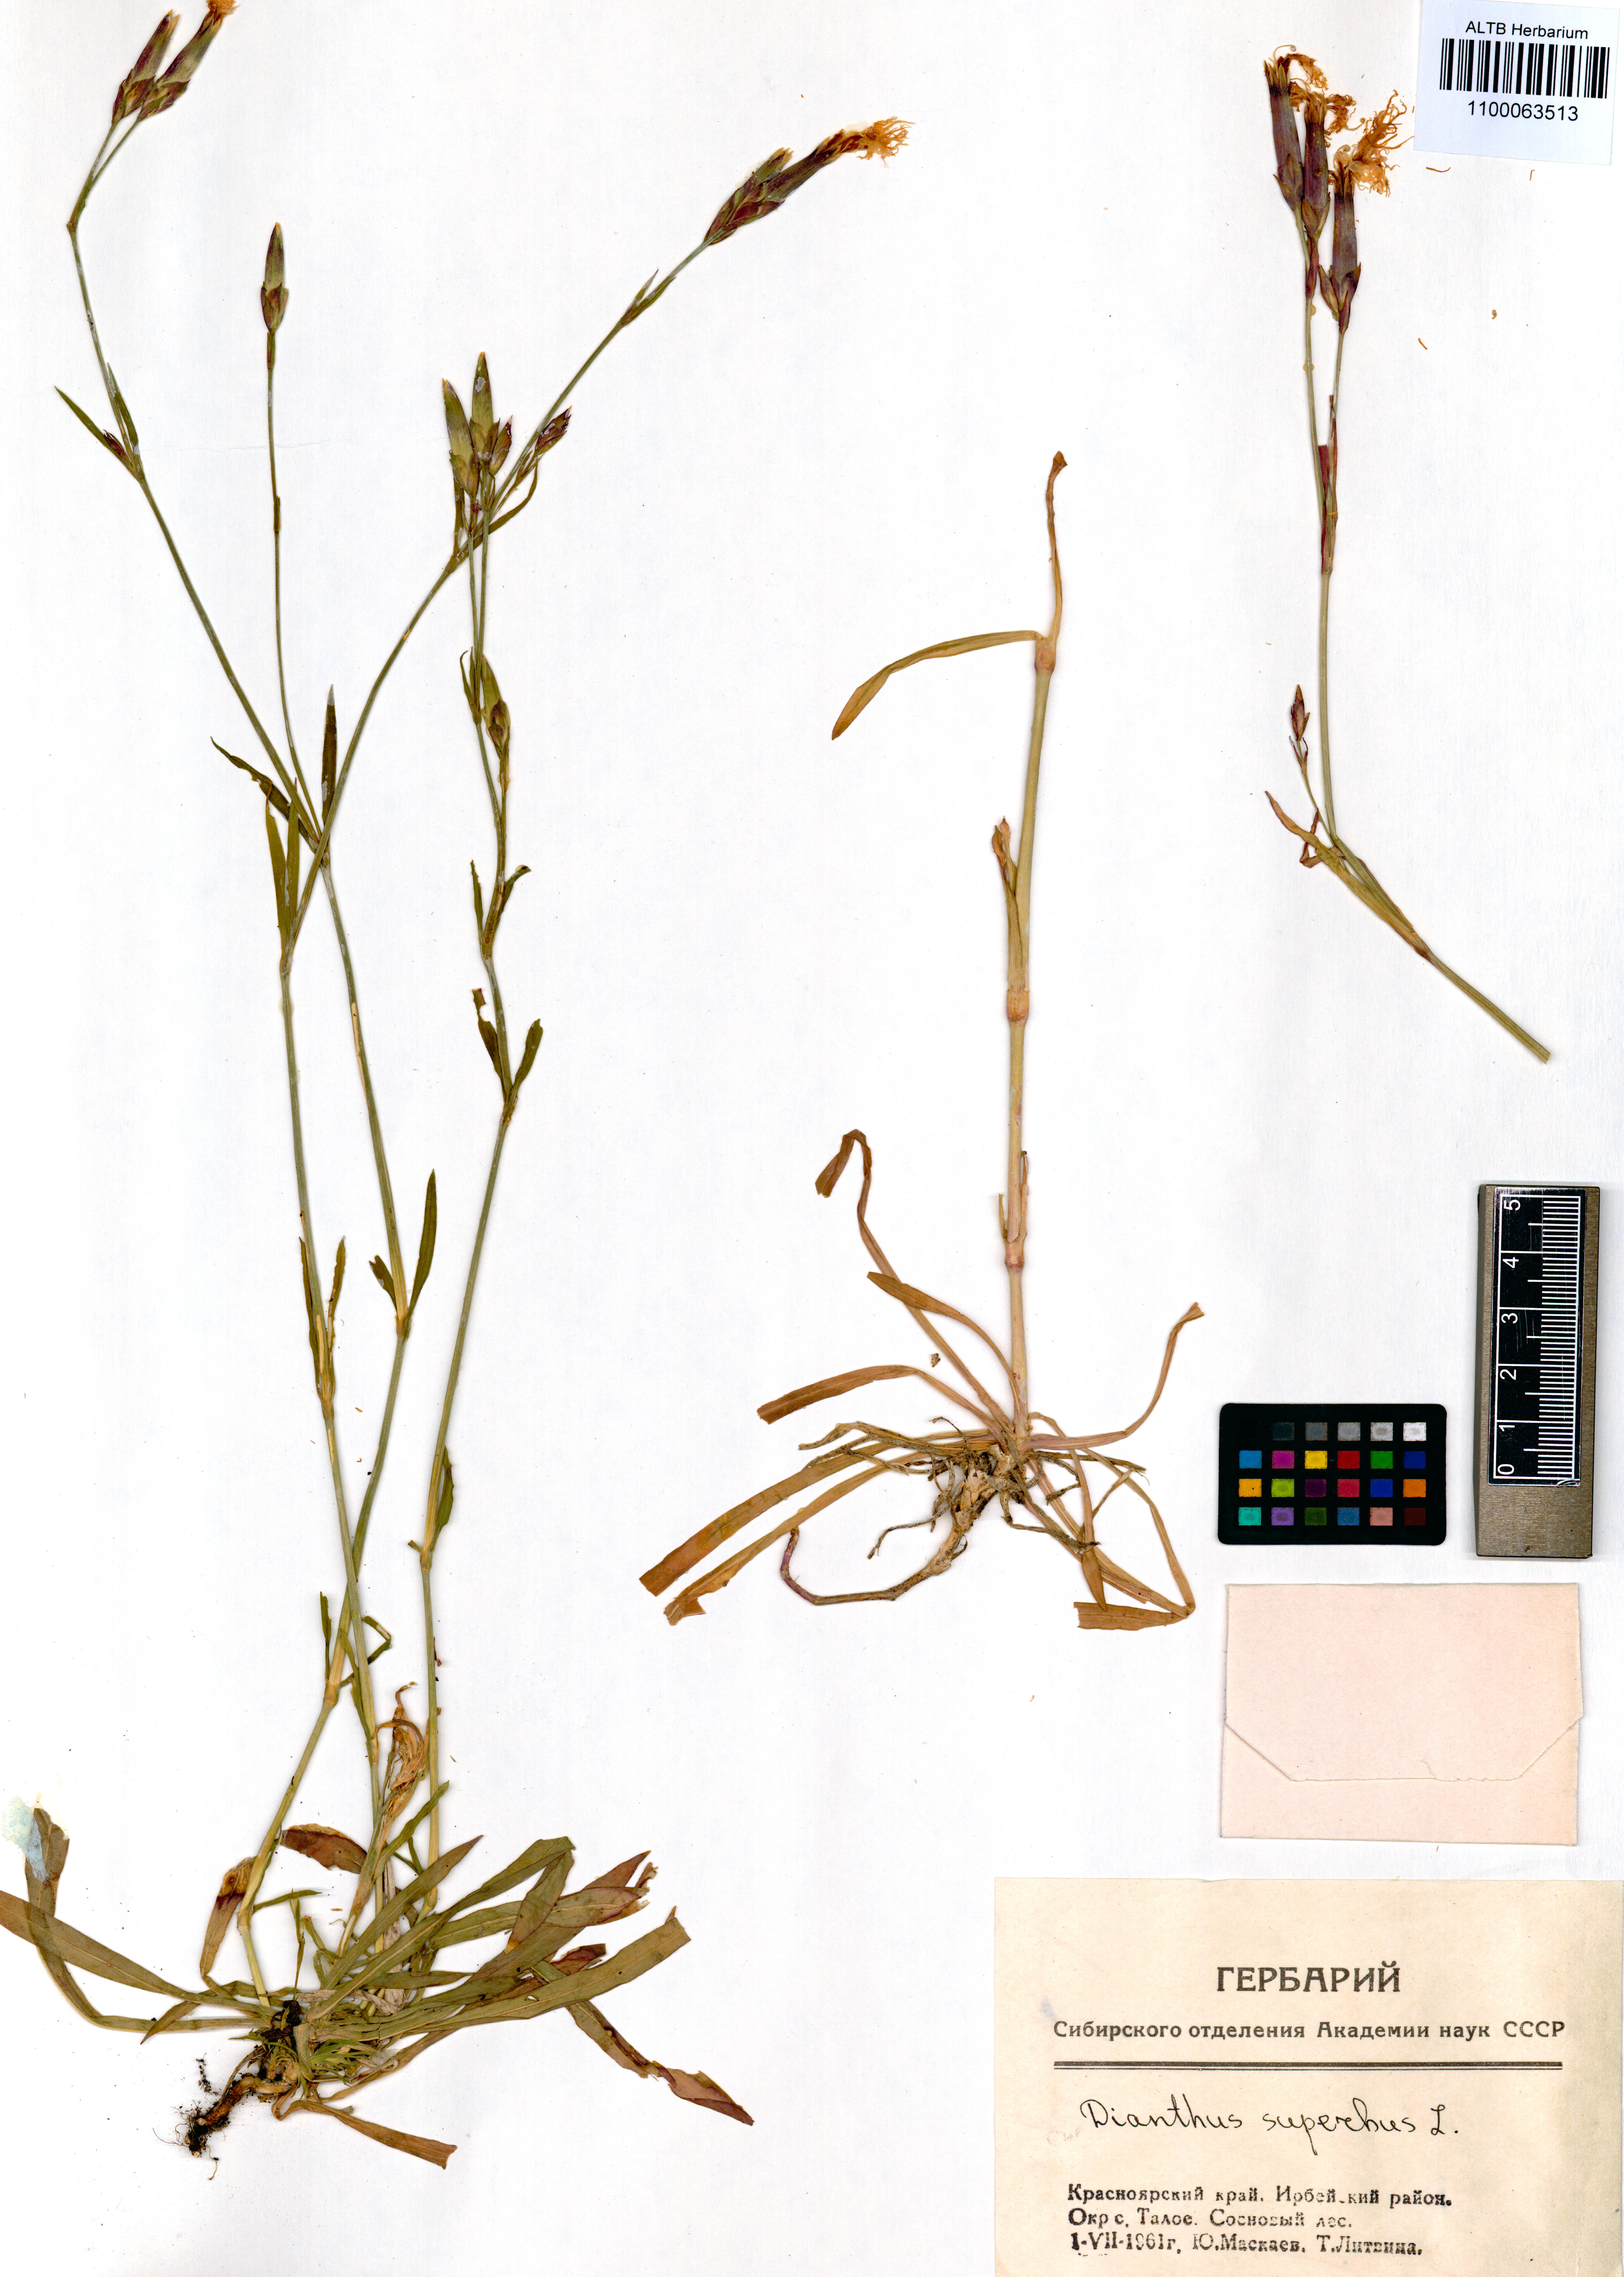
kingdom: Plantae
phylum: Tracheophyta
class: Magnoliopsida
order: Caryophyllales
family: Caryophyllaceae
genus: Dianthus
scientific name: Dianthus superbus
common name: Fringed pink
